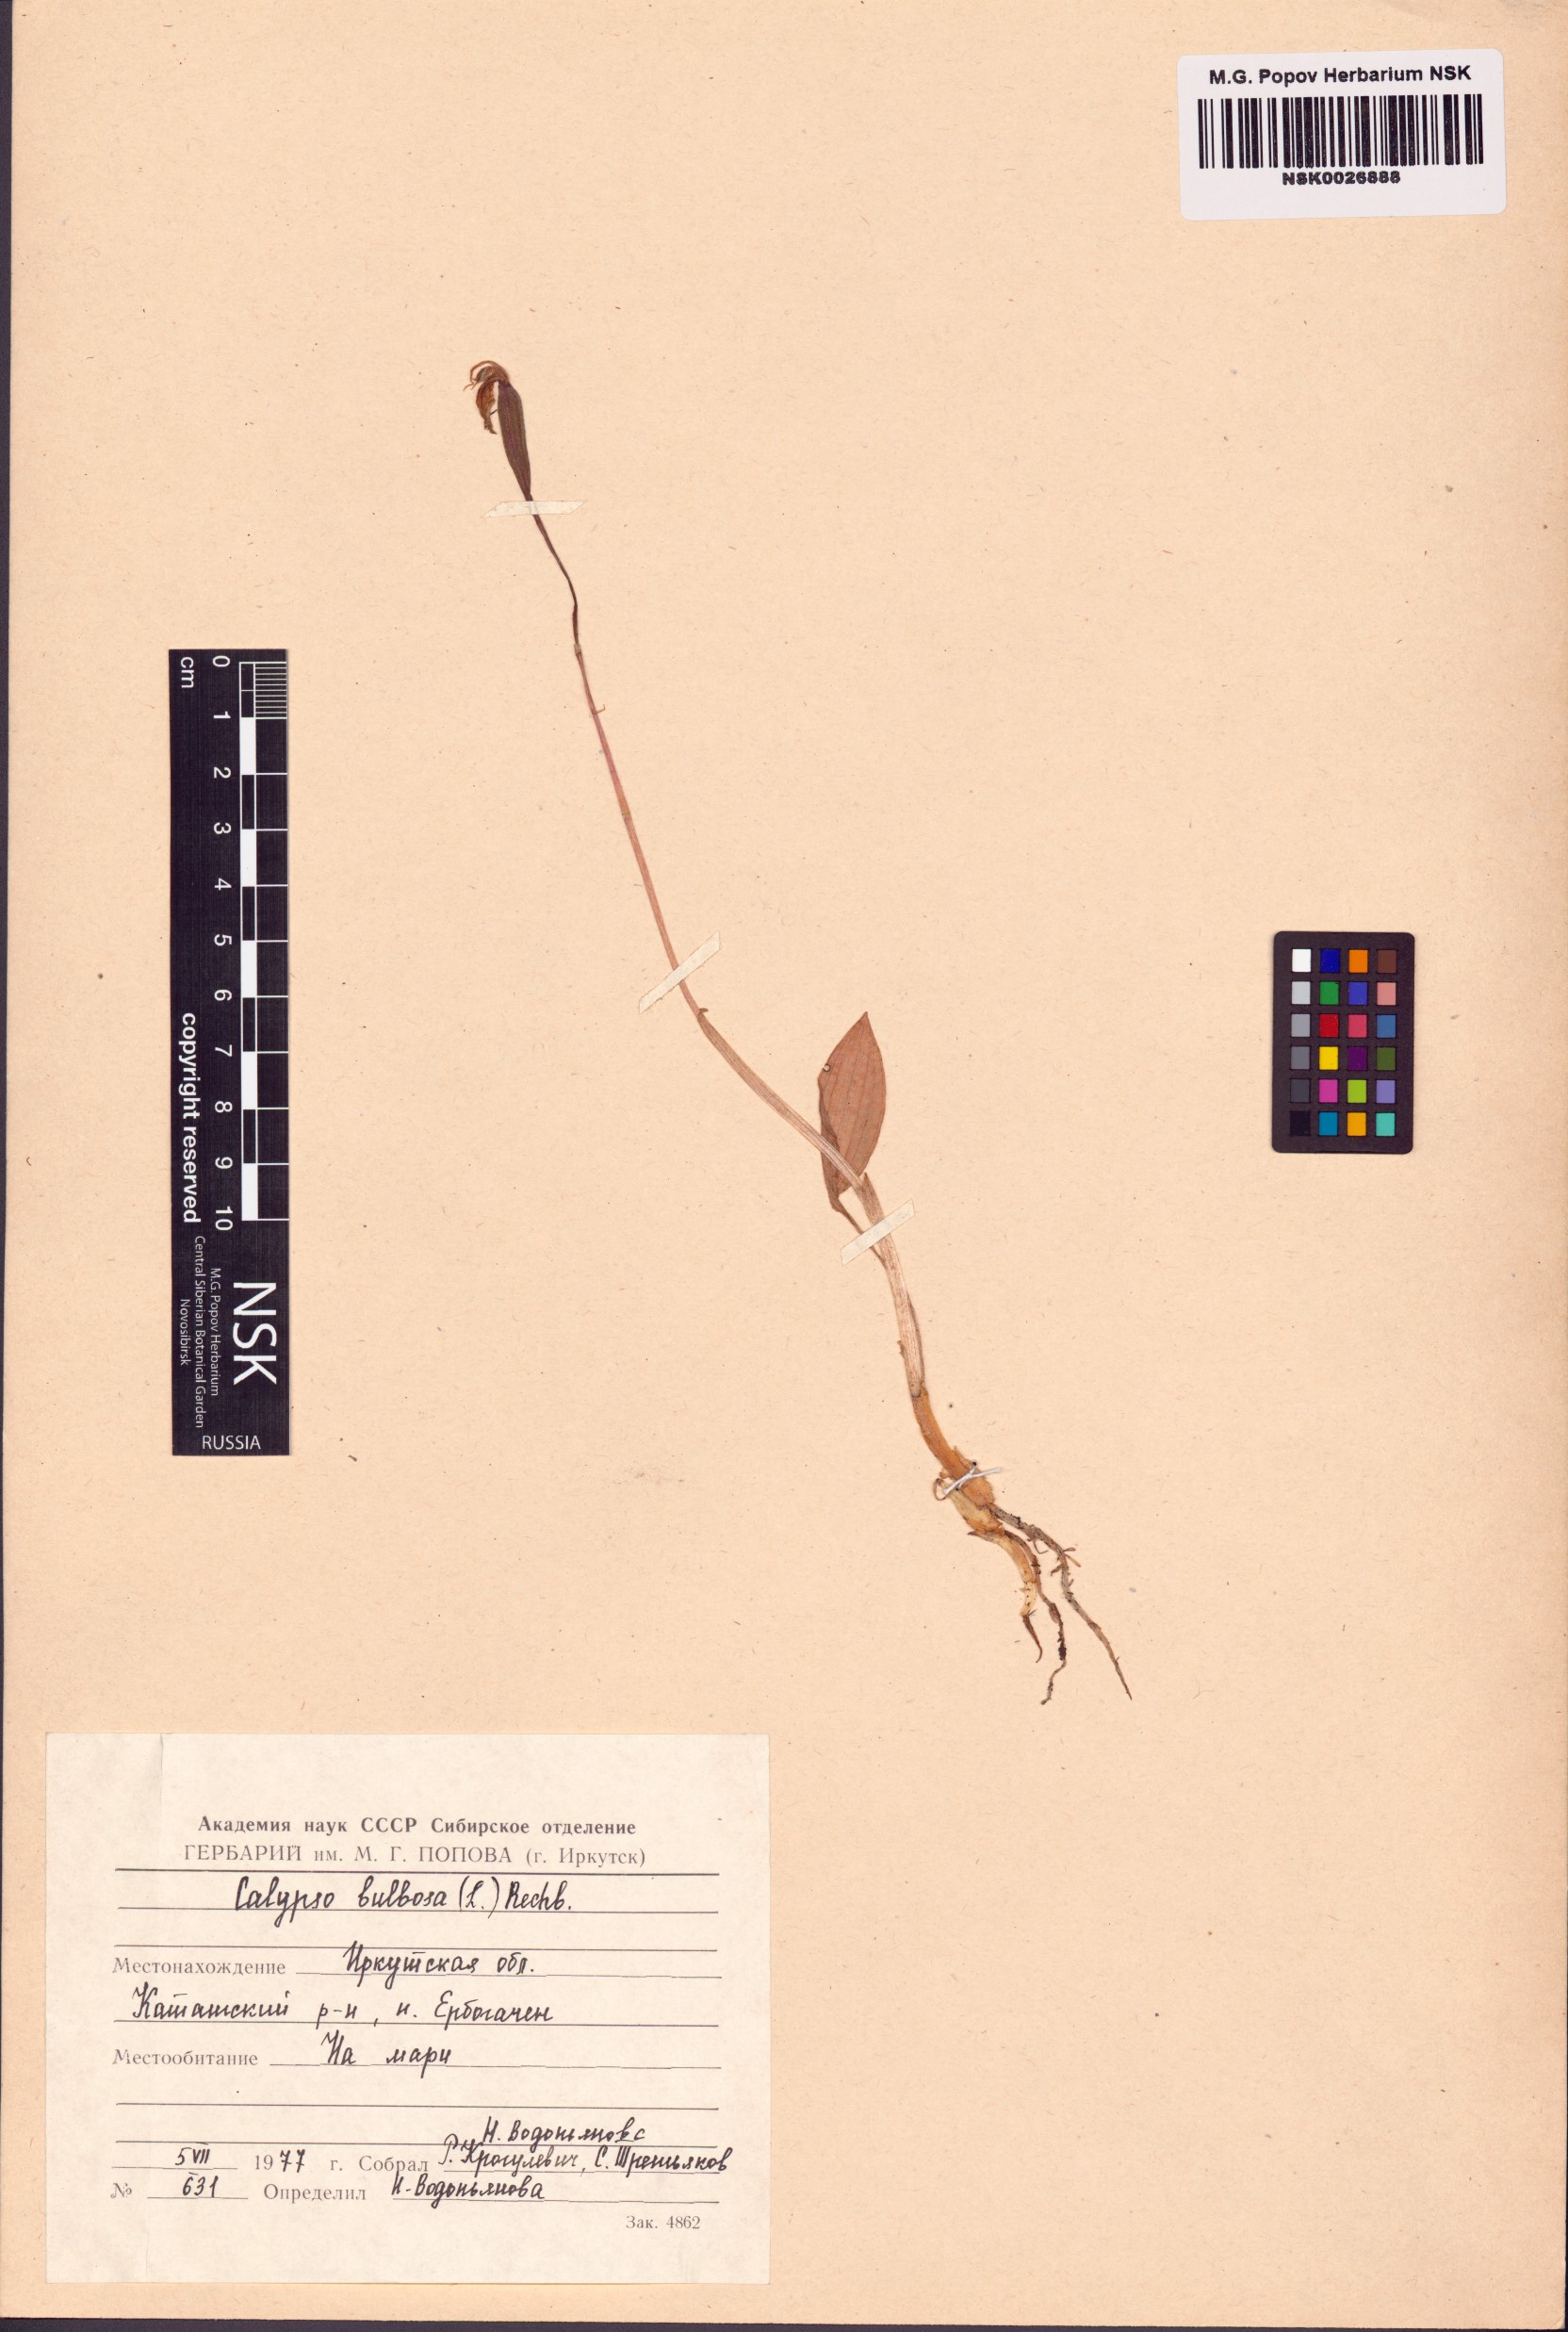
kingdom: Plantae
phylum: Tracheophyta
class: Liliopsida
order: Asparagales
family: Orchidaceae
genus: Calypso
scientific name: Calypso bulbosa
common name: Calypso
